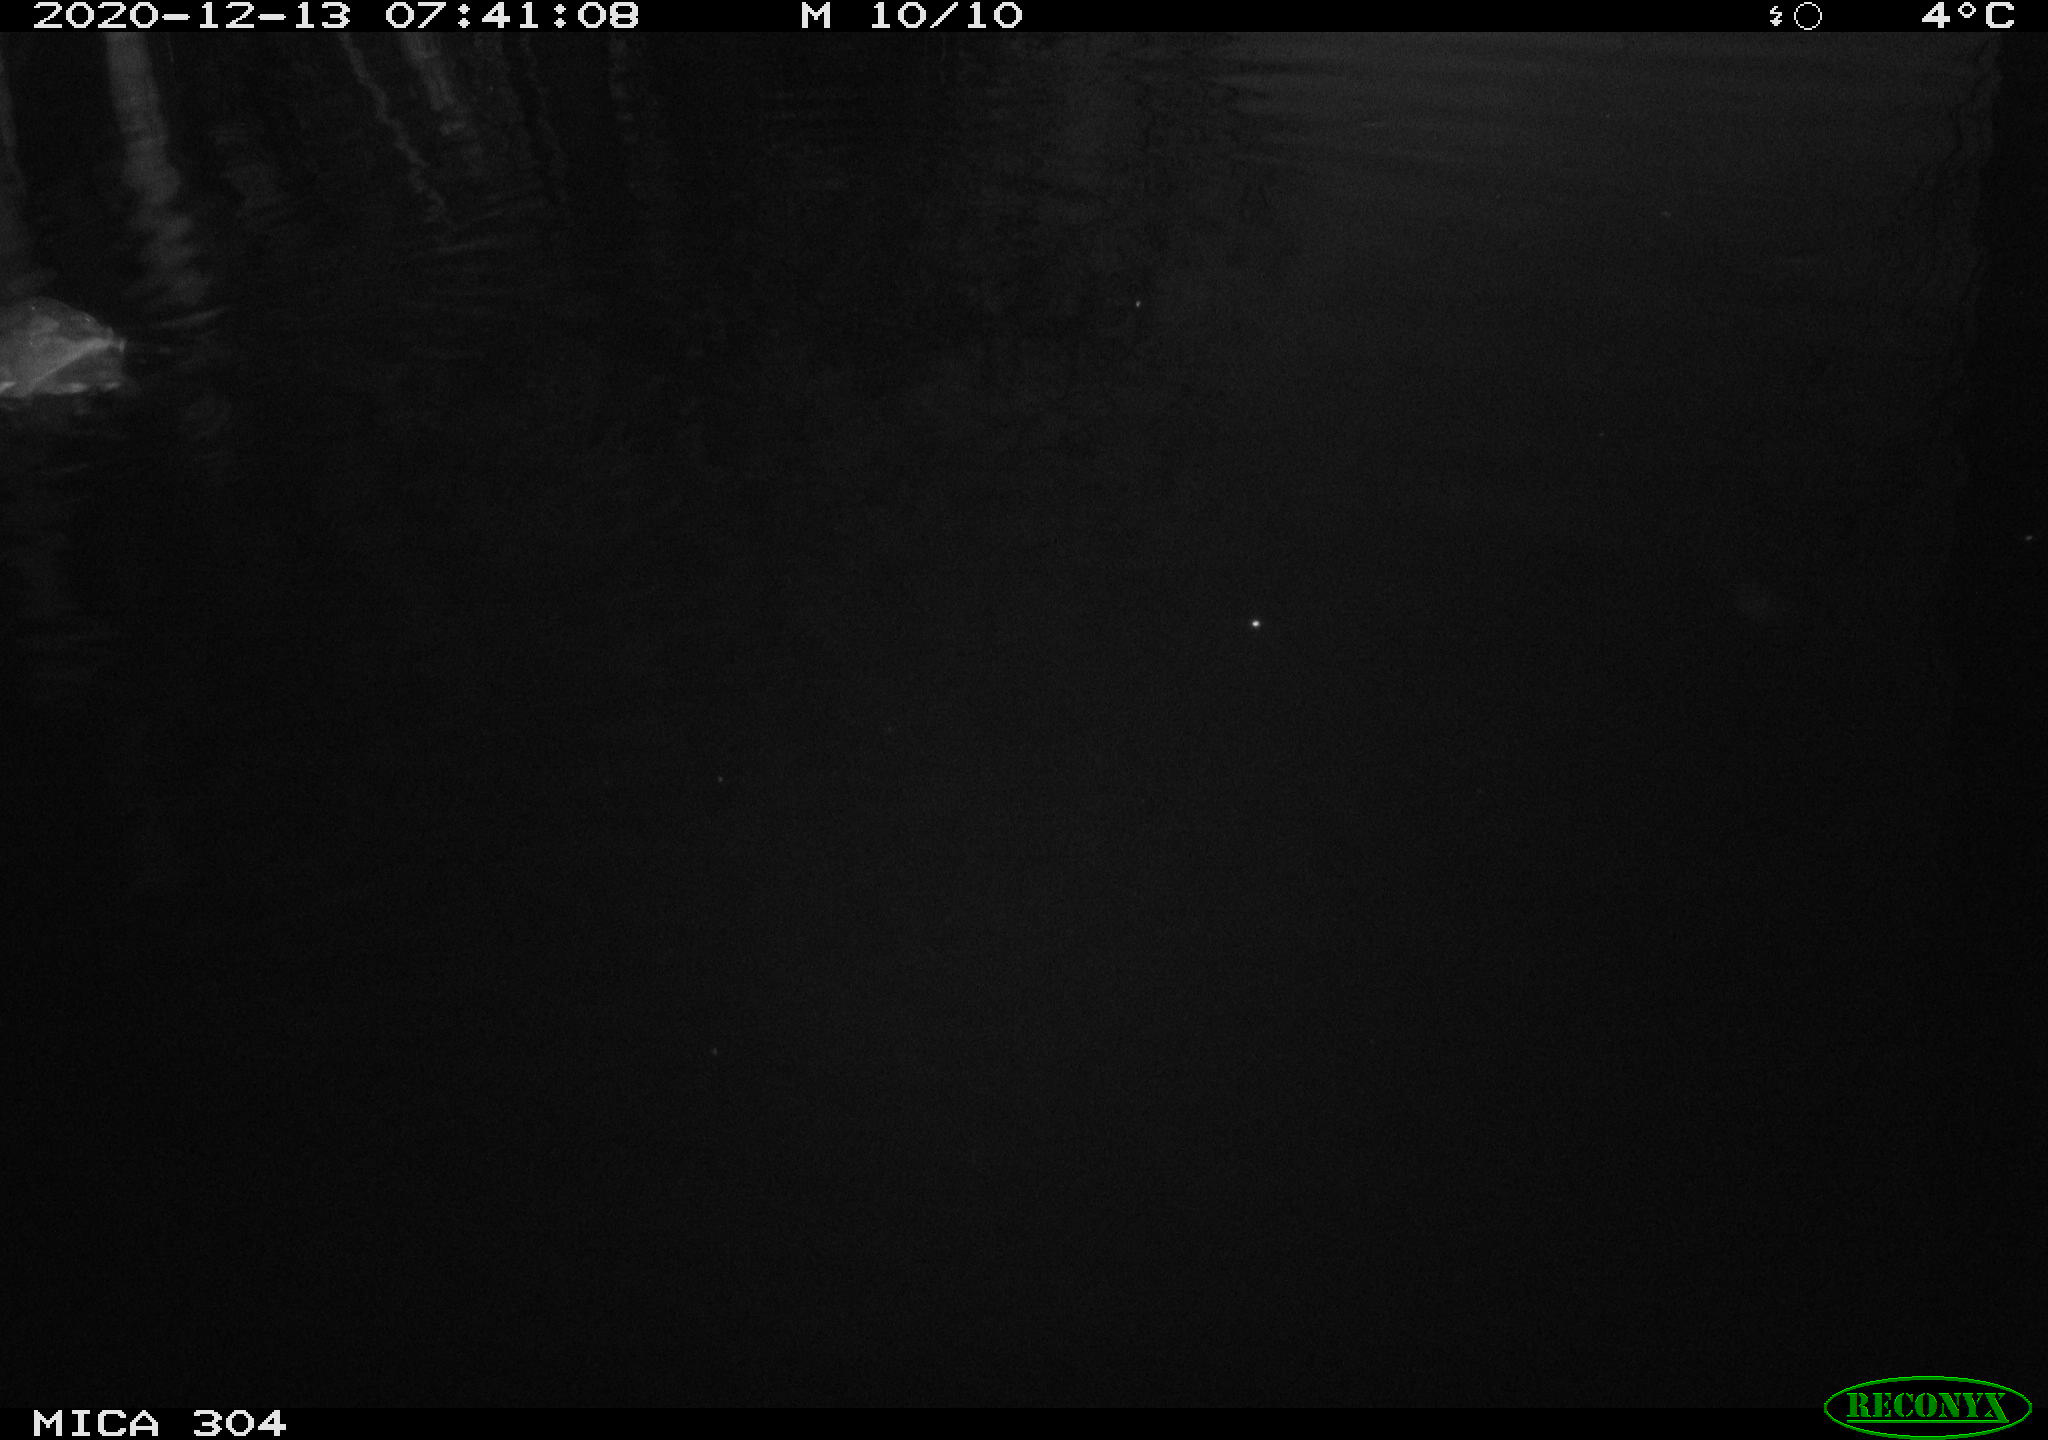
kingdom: Animalia
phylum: Chordata
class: Aves
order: Gruiformes
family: Rallidae
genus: Gallinula
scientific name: Gallinula chloropus
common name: Common moorhen
